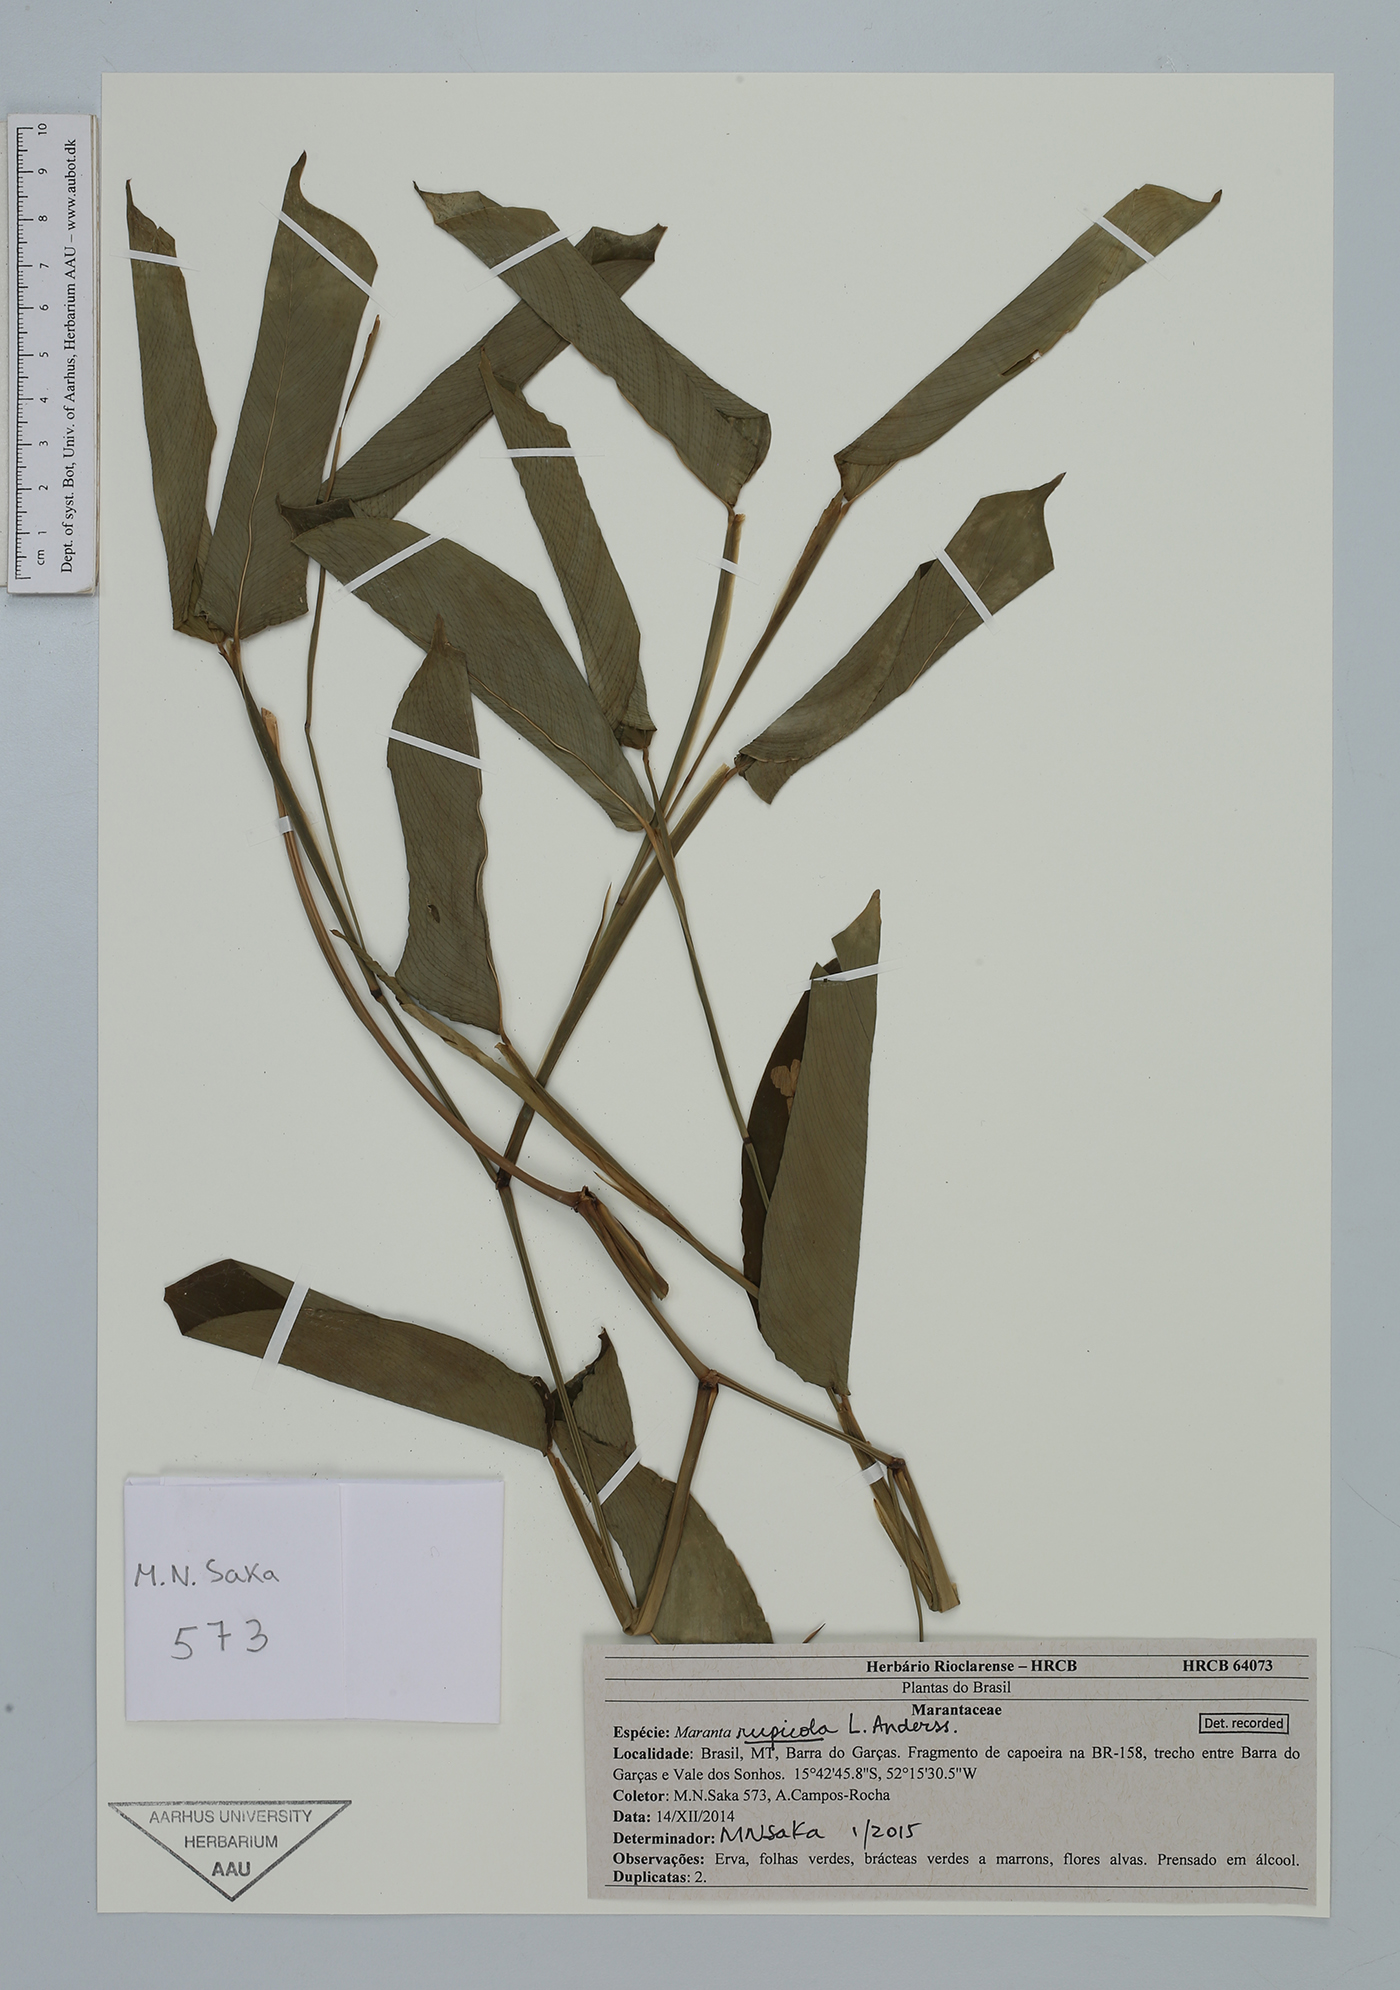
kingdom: Plantae
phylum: Tracheophyta
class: Liliopsida
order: Zingiberales
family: Marantaceae
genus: Maranta
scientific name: Maranta rupicola
